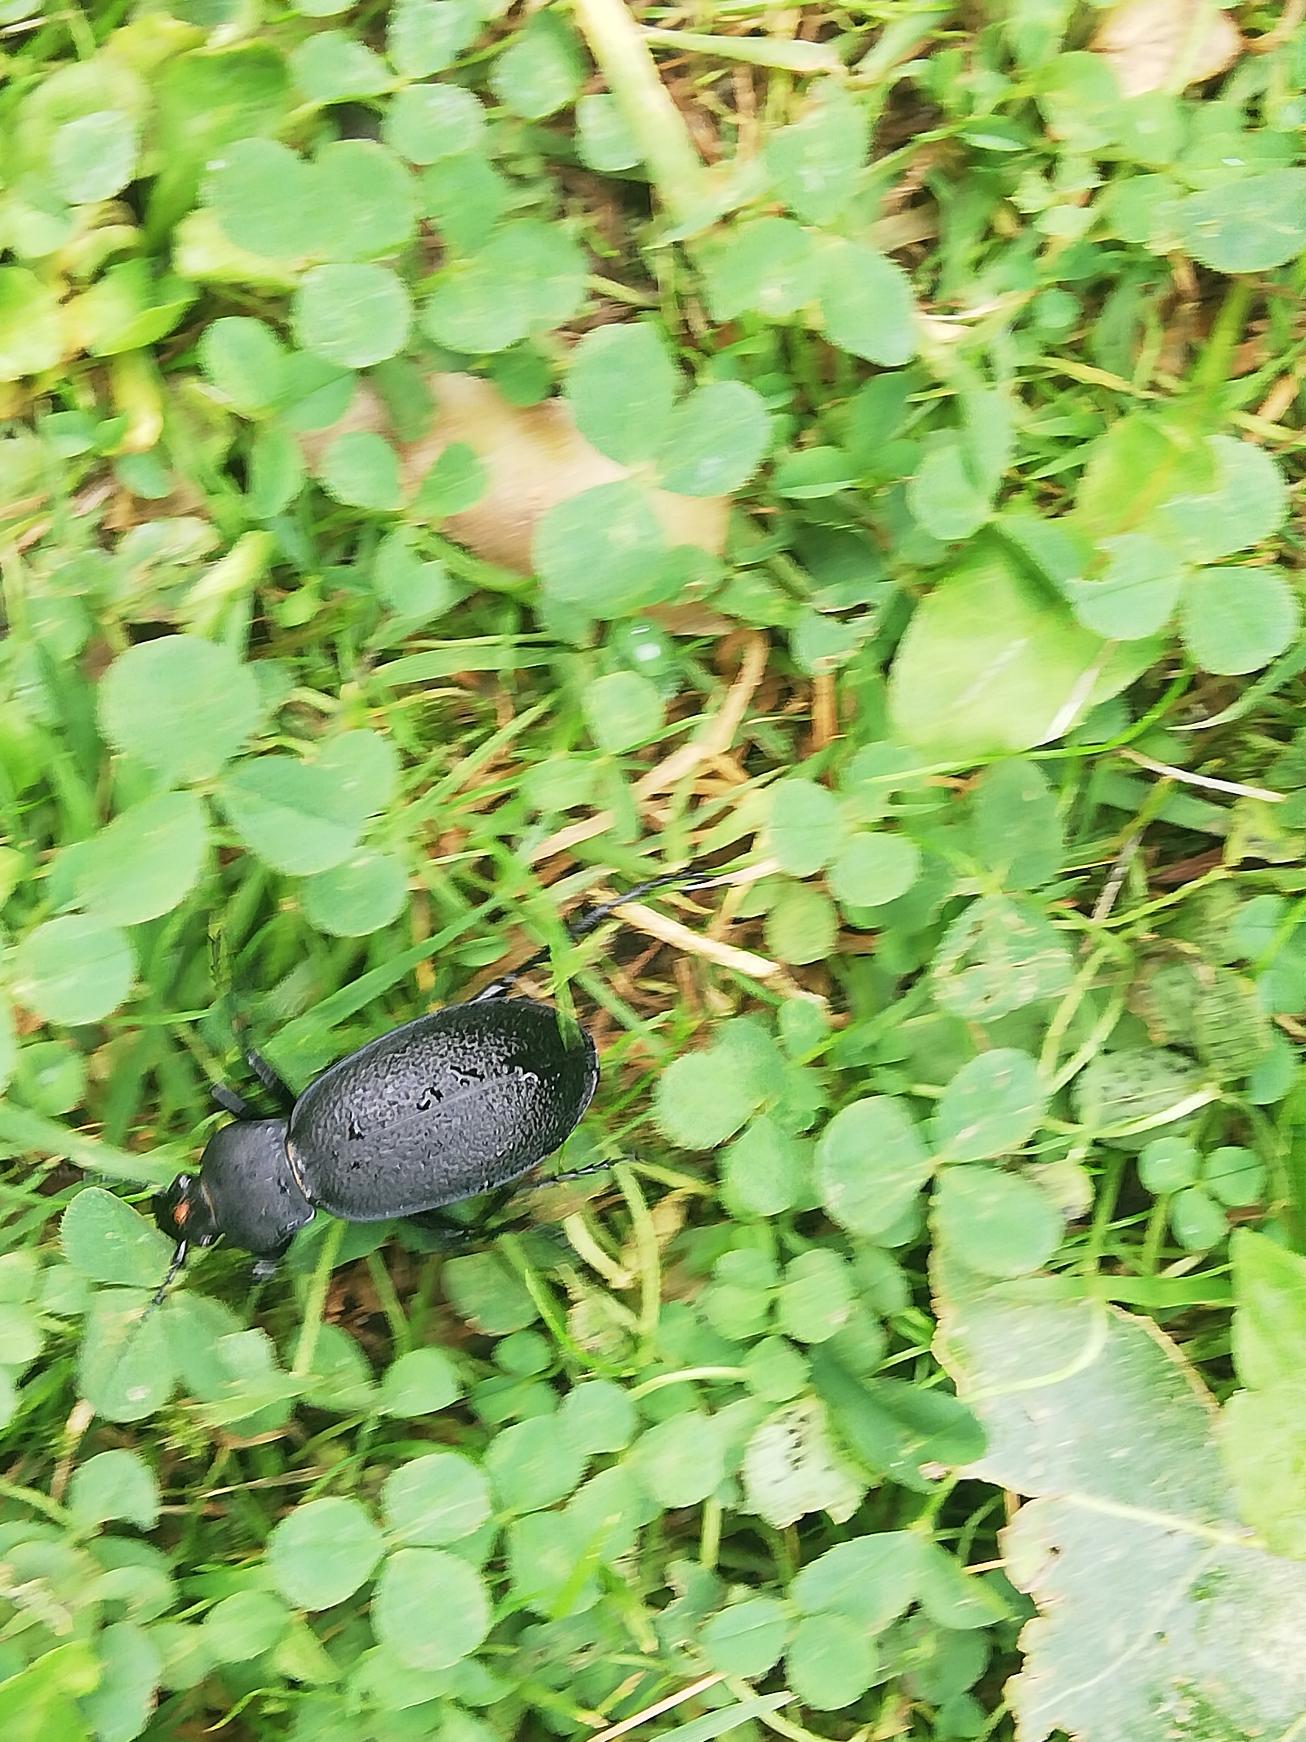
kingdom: Animalia
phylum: Arthropoda
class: Insecta
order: Coleoptera
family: Carabidae
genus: Carabus
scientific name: Carabus coriaceus
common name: Læderløber
